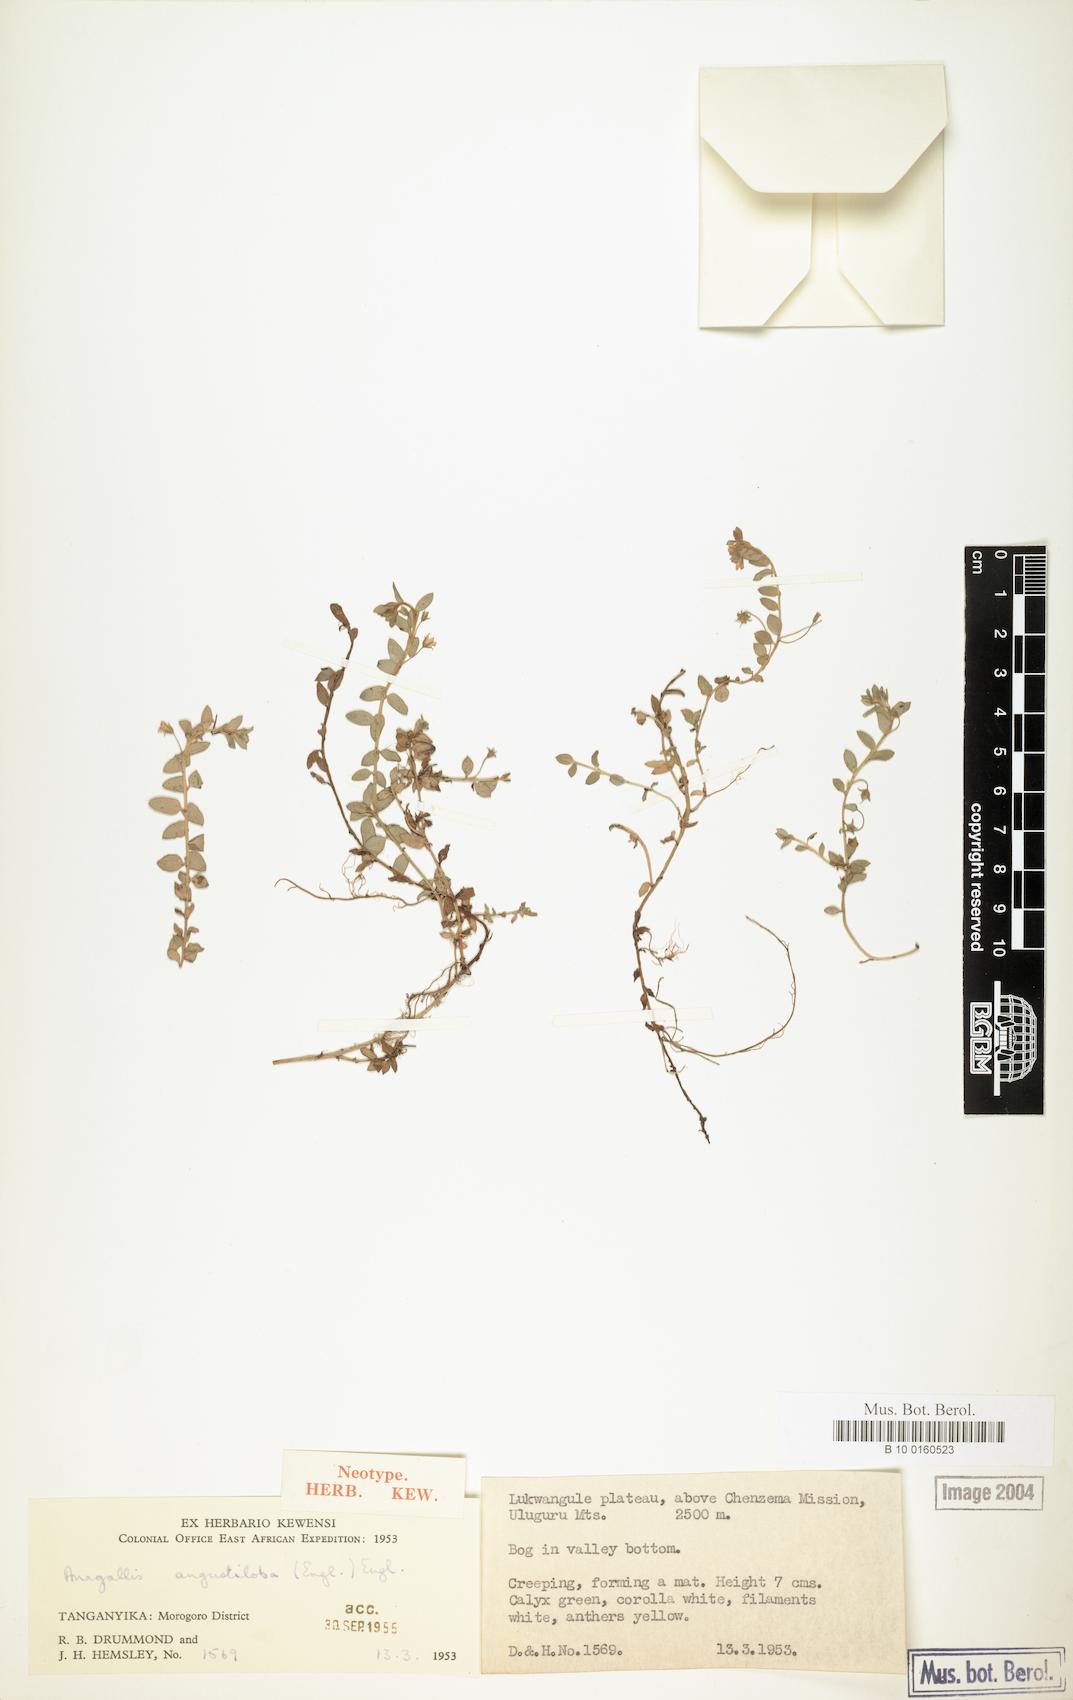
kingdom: Plantae
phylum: Tracheophyta
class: Magnoliopsida
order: Ericales
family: Primulaceae
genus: Lysimachia
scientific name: Lysimachia angustiloba
